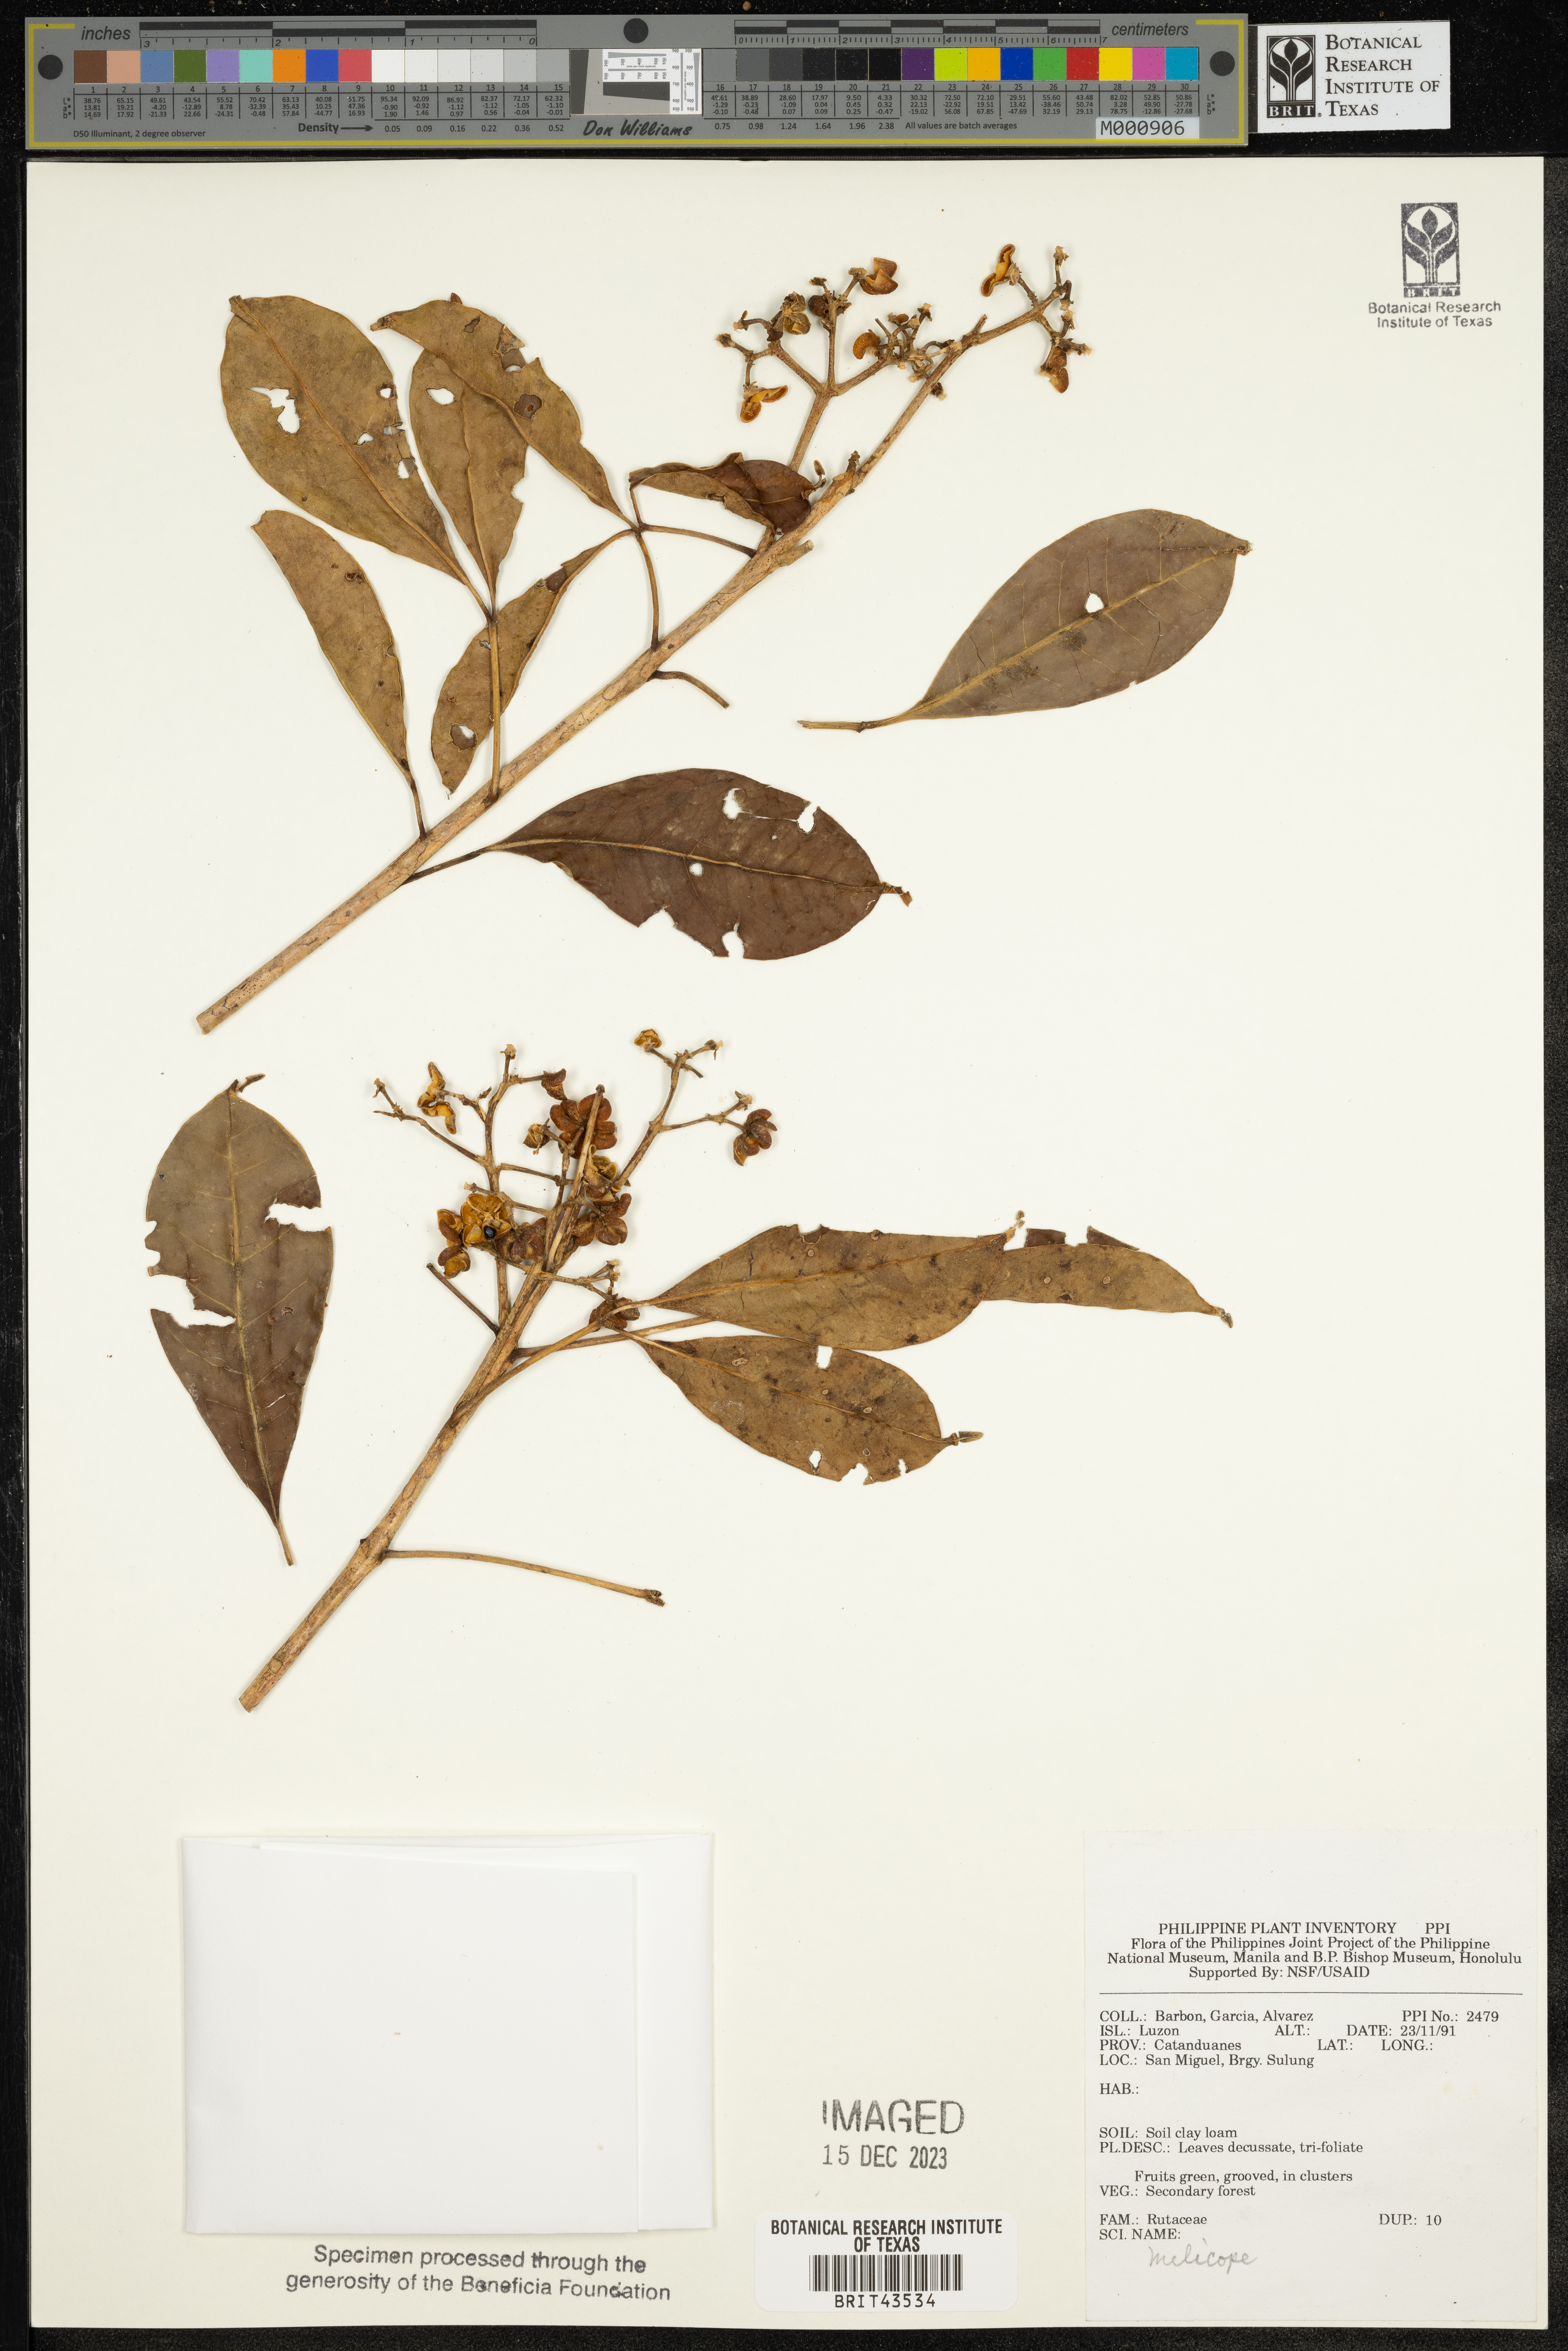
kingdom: Plantae
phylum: Tracheophyta
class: Magnoliopsida
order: Sapindales
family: Rutaceae
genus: Melicope
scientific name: Melicope
